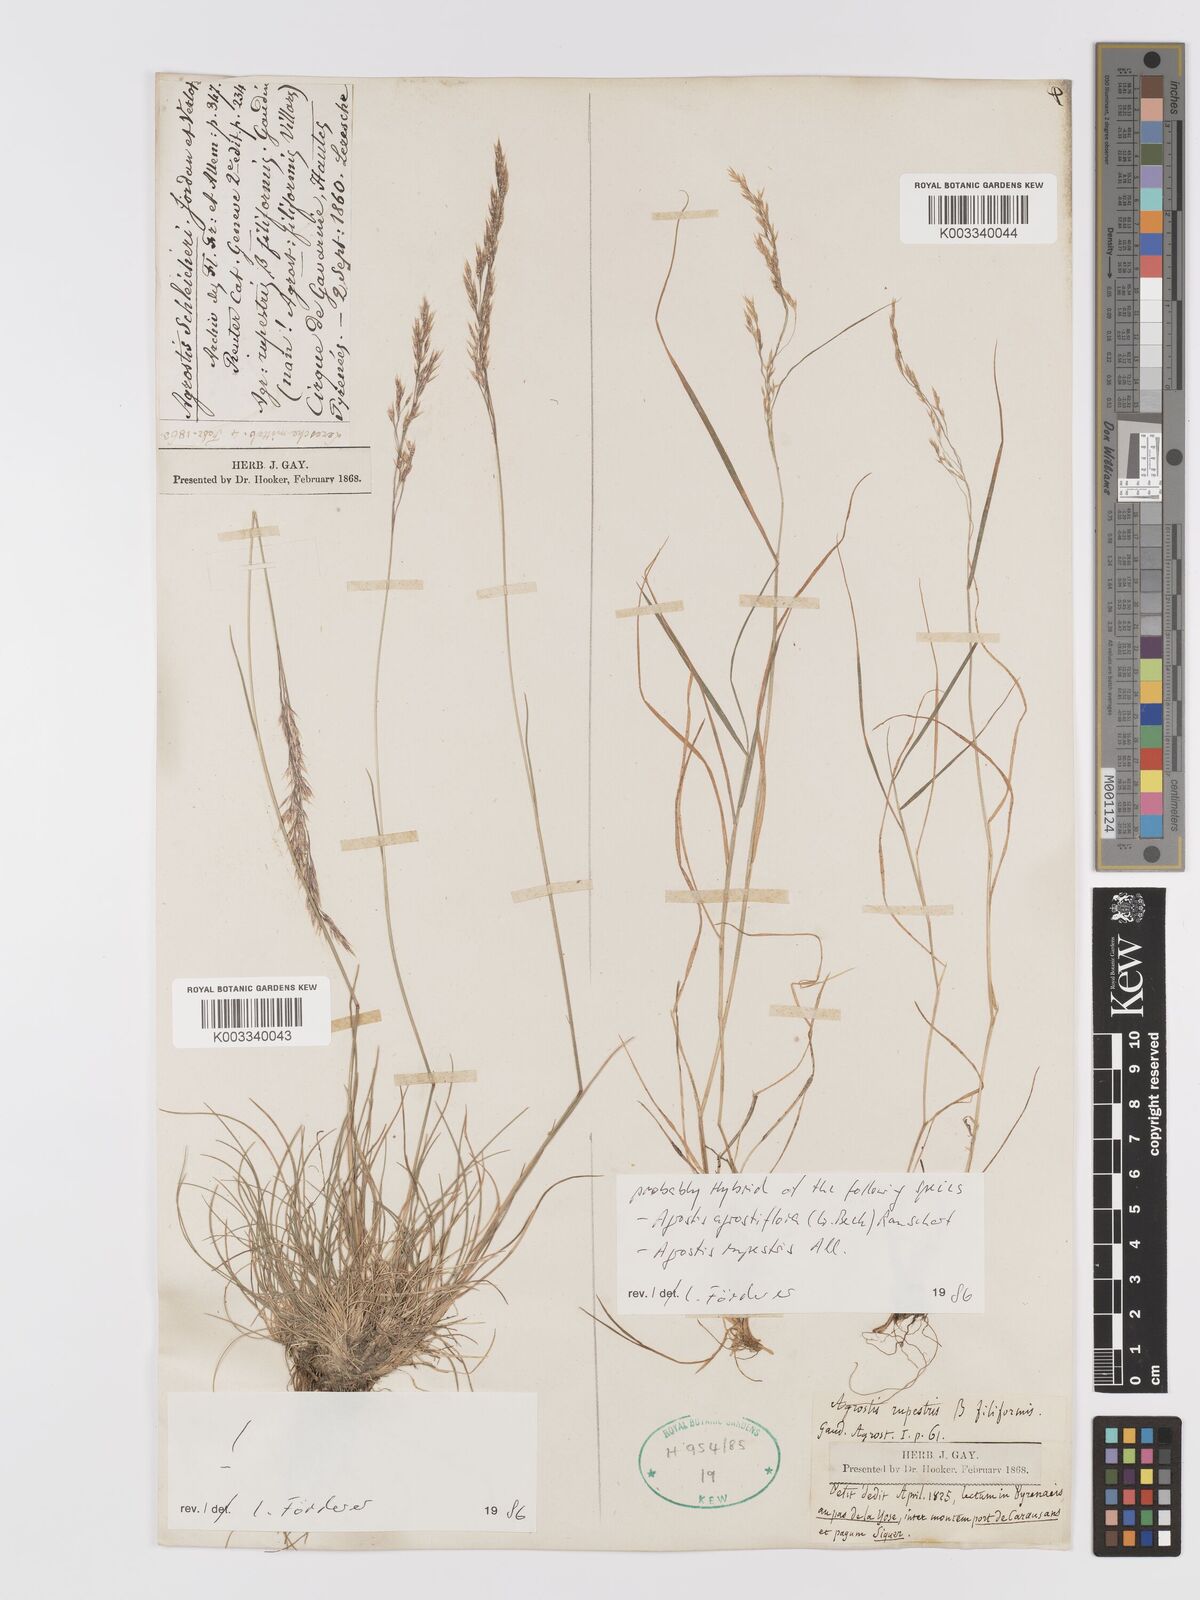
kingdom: Plantae
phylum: Tracheophyta
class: Liliopsida
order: Poales
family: Poaceae
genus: Alpagrostis
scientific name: Alpagrostis schleicheri
